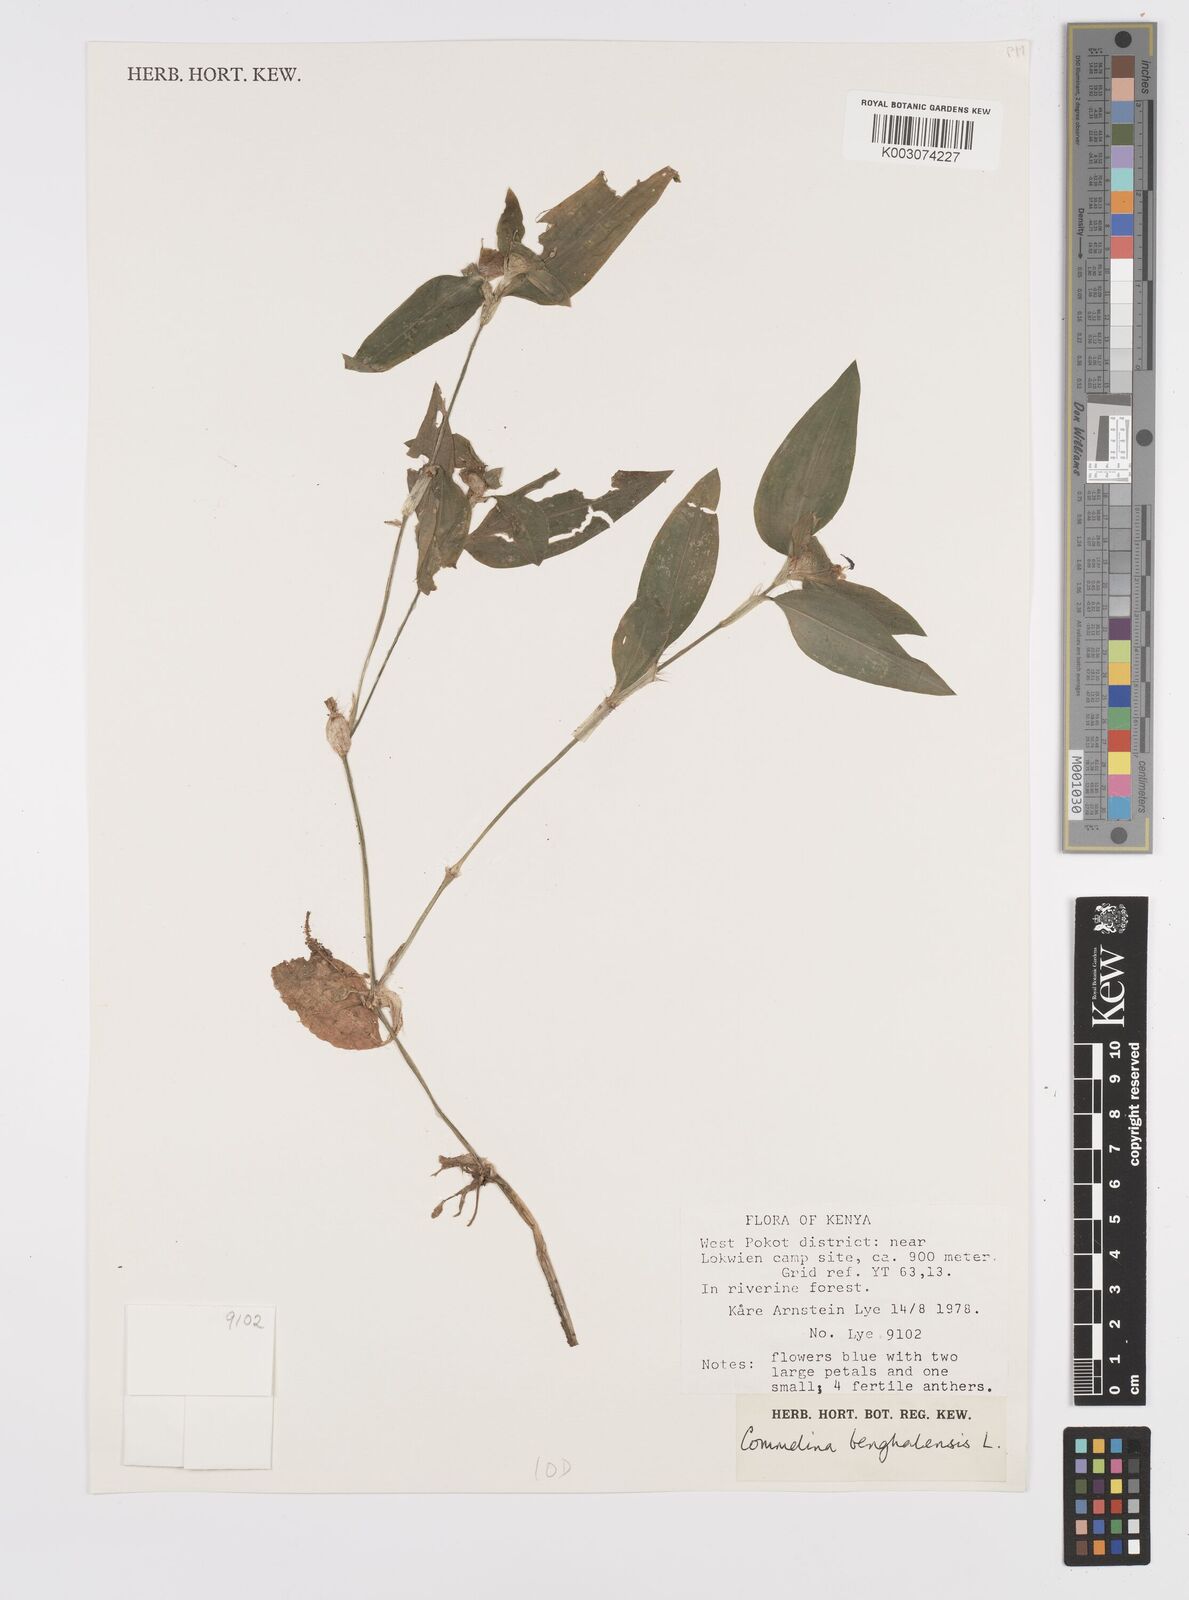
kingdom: Plantae
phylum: Tracheophyta
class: Liliopsida
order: Commelinales
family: Commelinaceae
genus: Commelina
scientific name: Commelina benghalensis
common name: Jio
